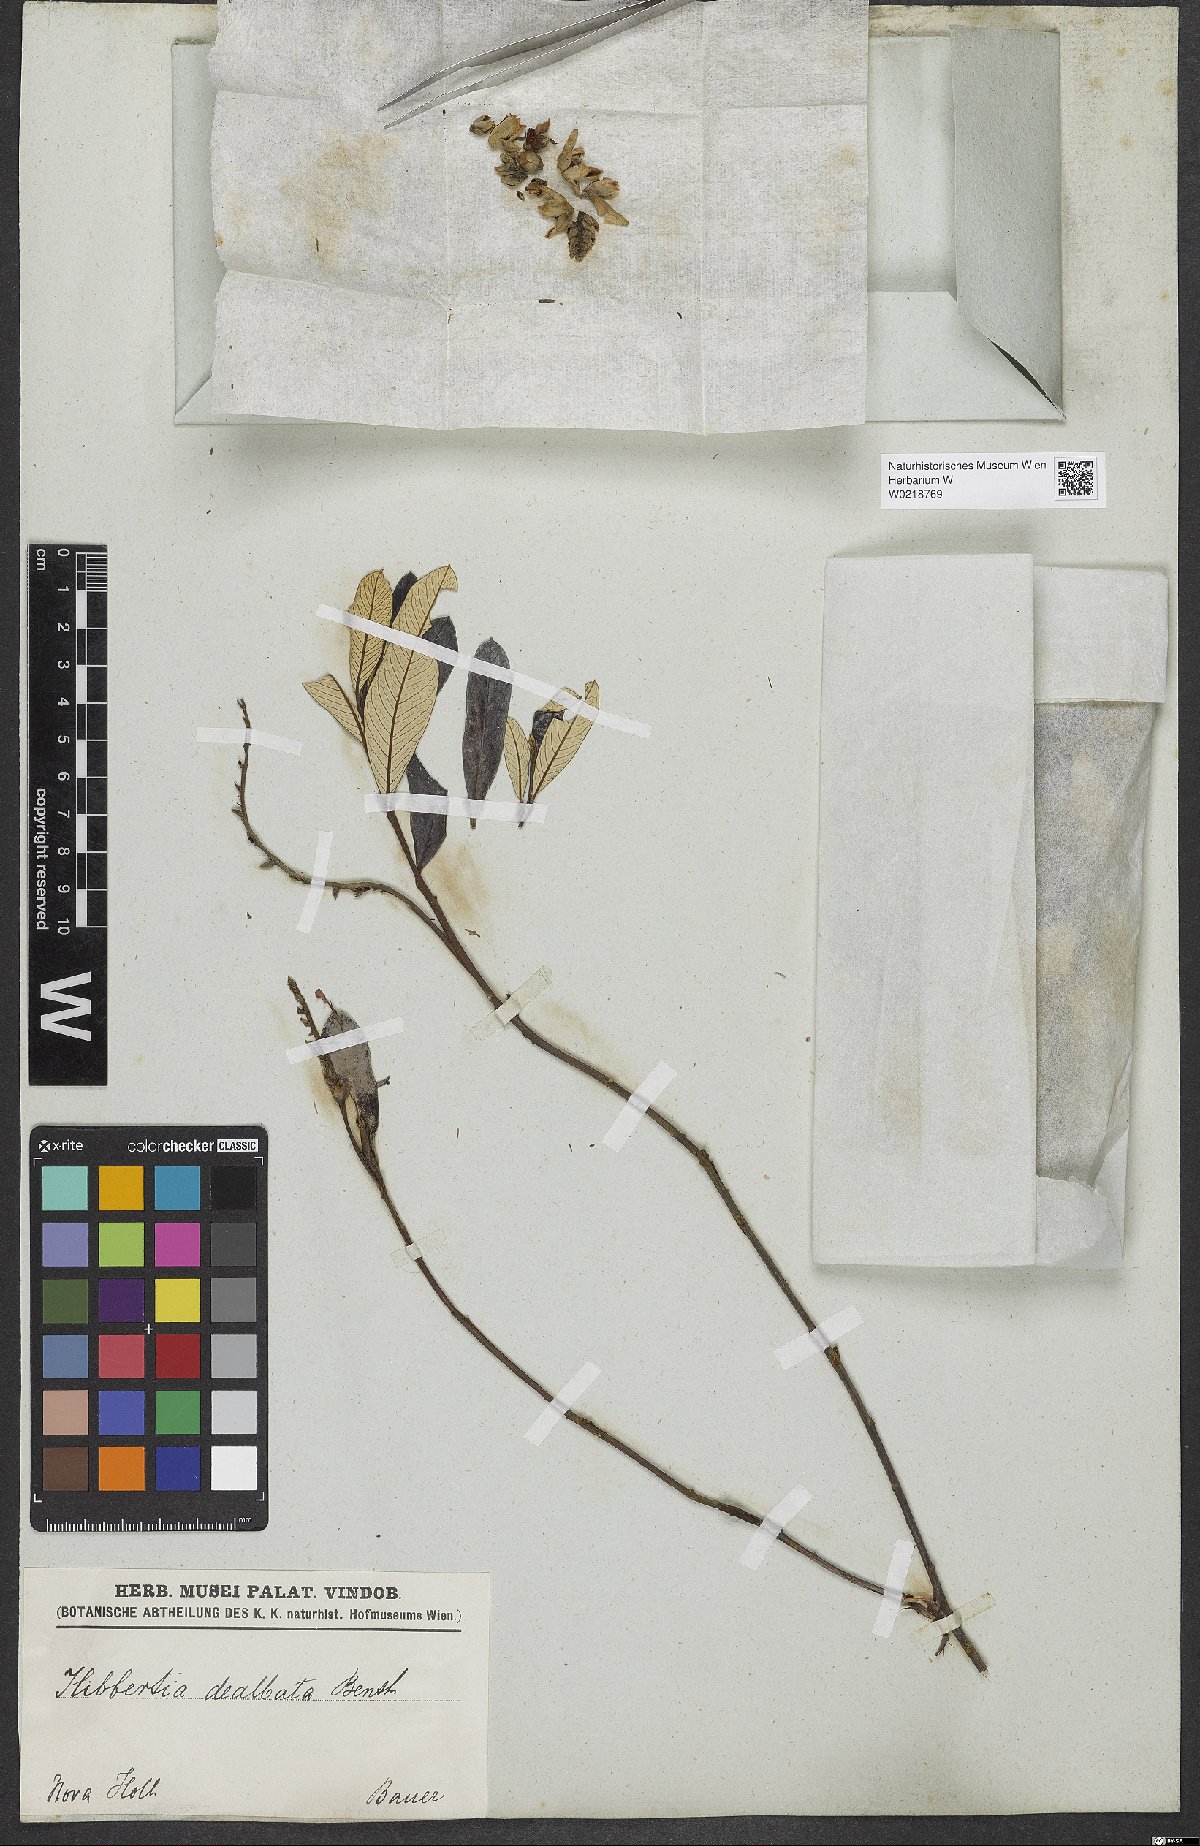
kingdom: Plantae
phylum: Tracheophyta
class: Magnoliopsida
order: Dilleniales
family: Dilleniaceae
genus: Hibbertia
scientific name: Hibbertia dealbata
